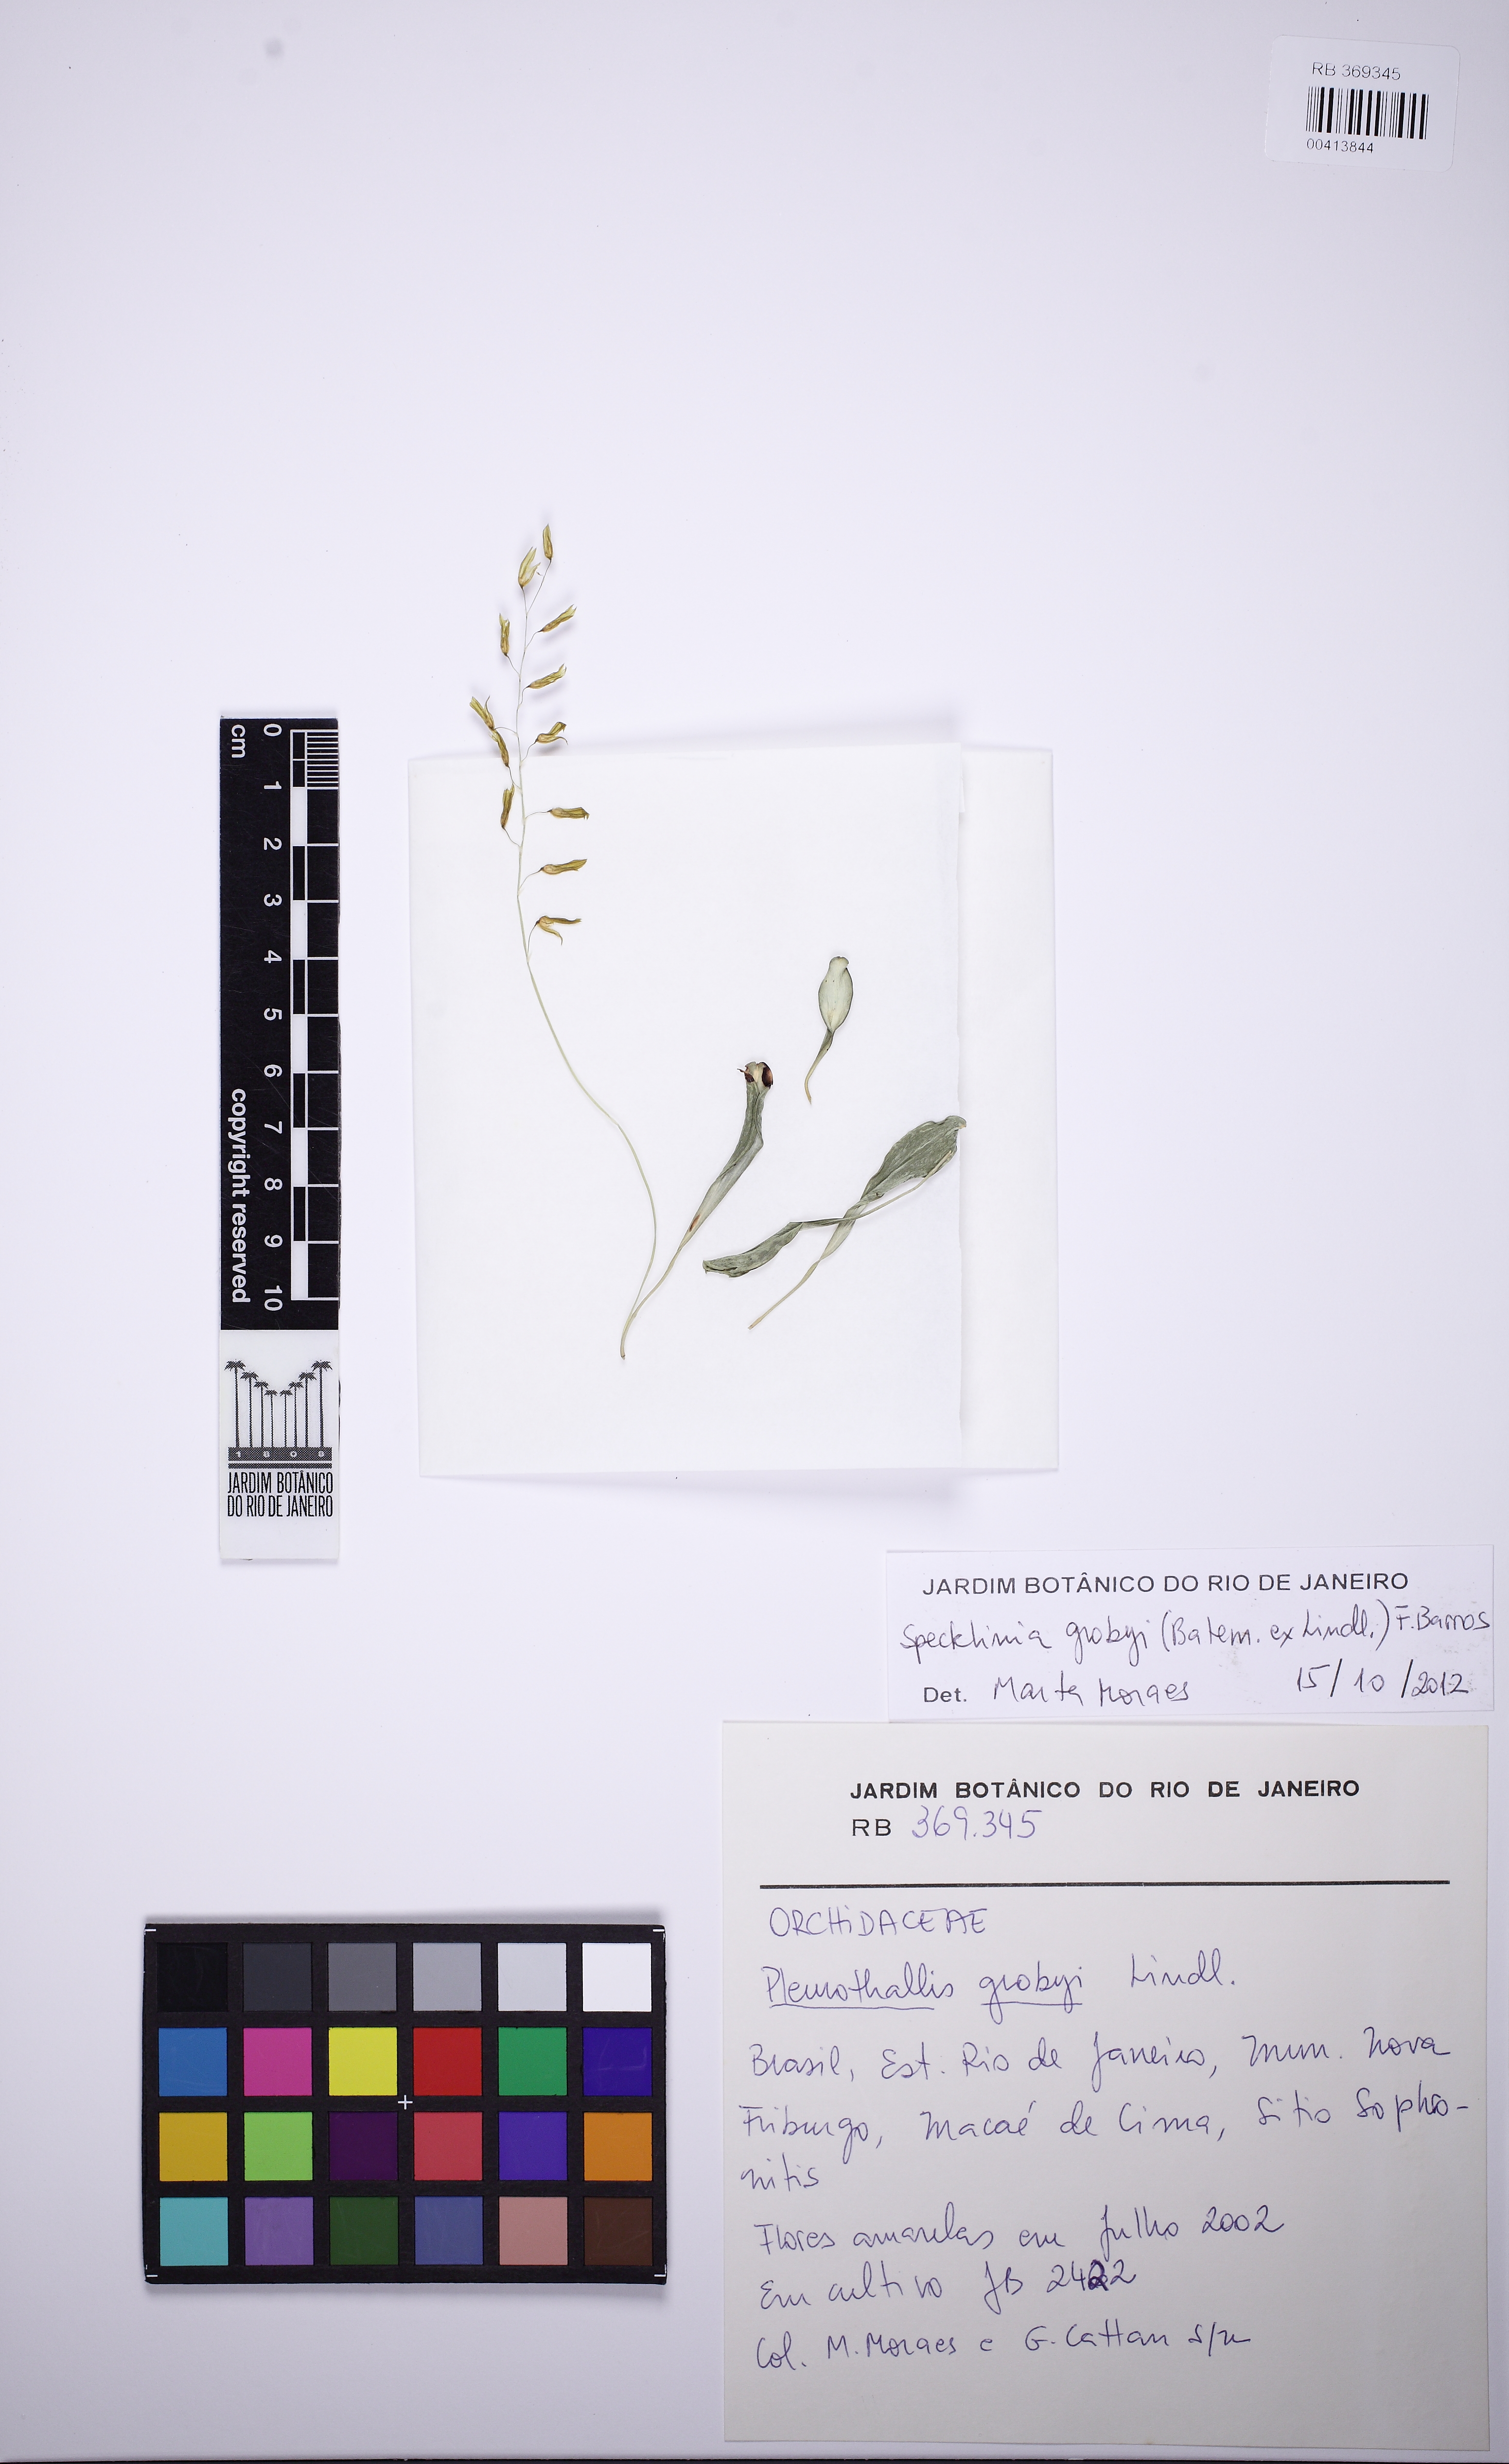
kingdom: Plantae
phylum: Tracheophyta
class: Liliopsida
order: Asparagales
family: Orchidaceae
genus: Specklinia
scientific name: Specklinia grobyi
